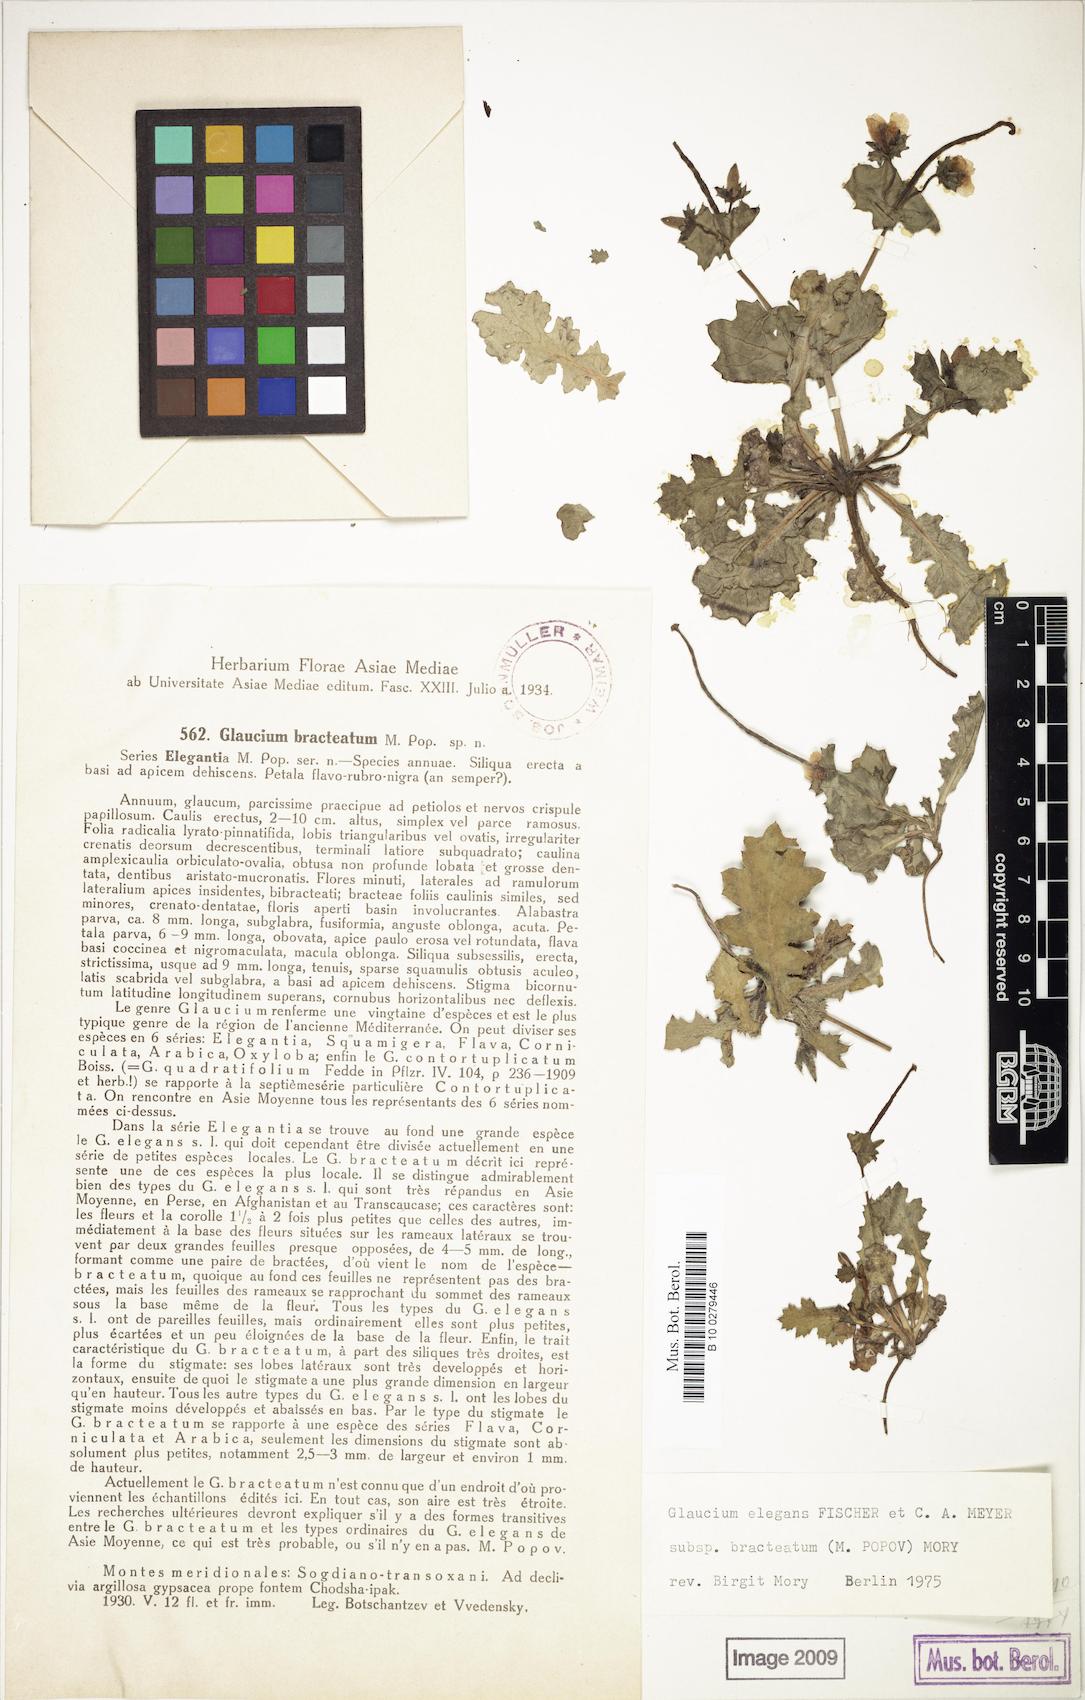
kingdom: Plantae
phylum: Tracheophyta
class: Magnoliopsida
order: Ranunculales
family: Papaveraceae
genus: Glaucium
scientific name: Glaucium elegans
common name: Annual horned-poppy
